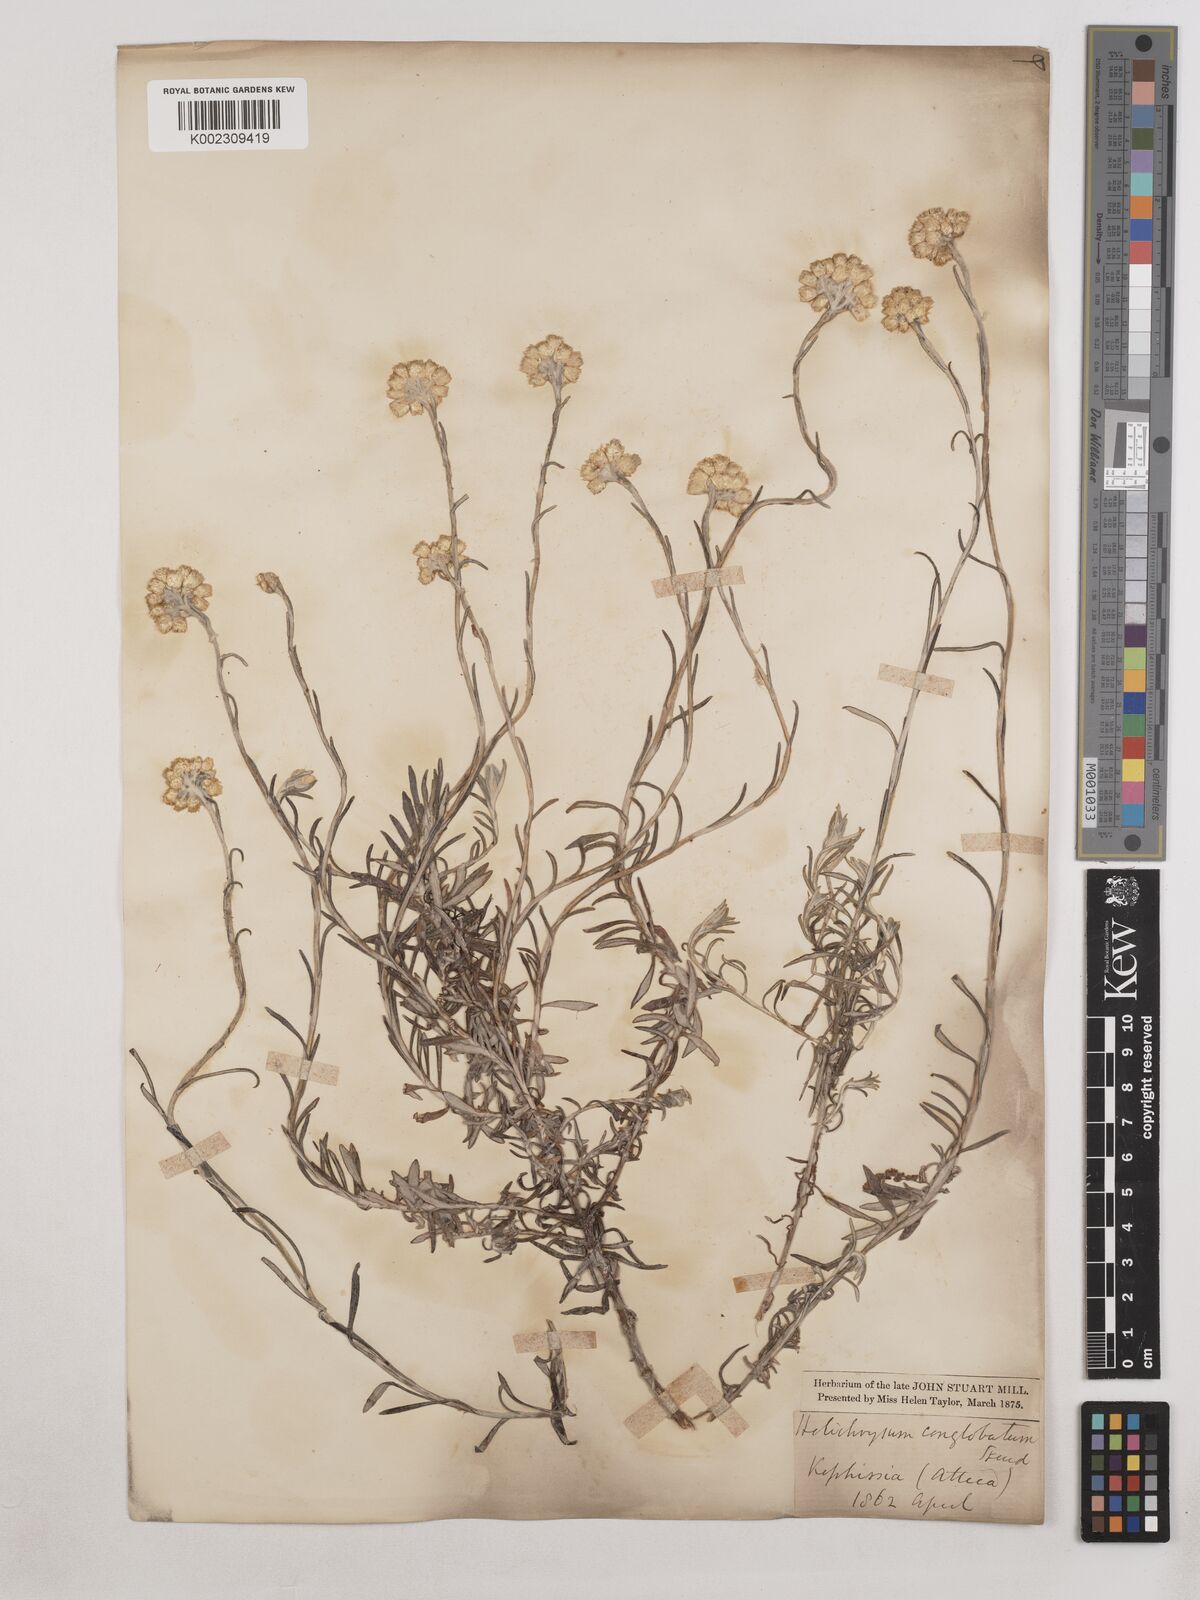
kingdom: Plantae
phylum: Tracheophyta
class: Magnoliopsida
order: Asterales
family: Asteraceae
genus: Helichrysum
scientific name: Helichrysum stoechas
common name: Goldilocks
